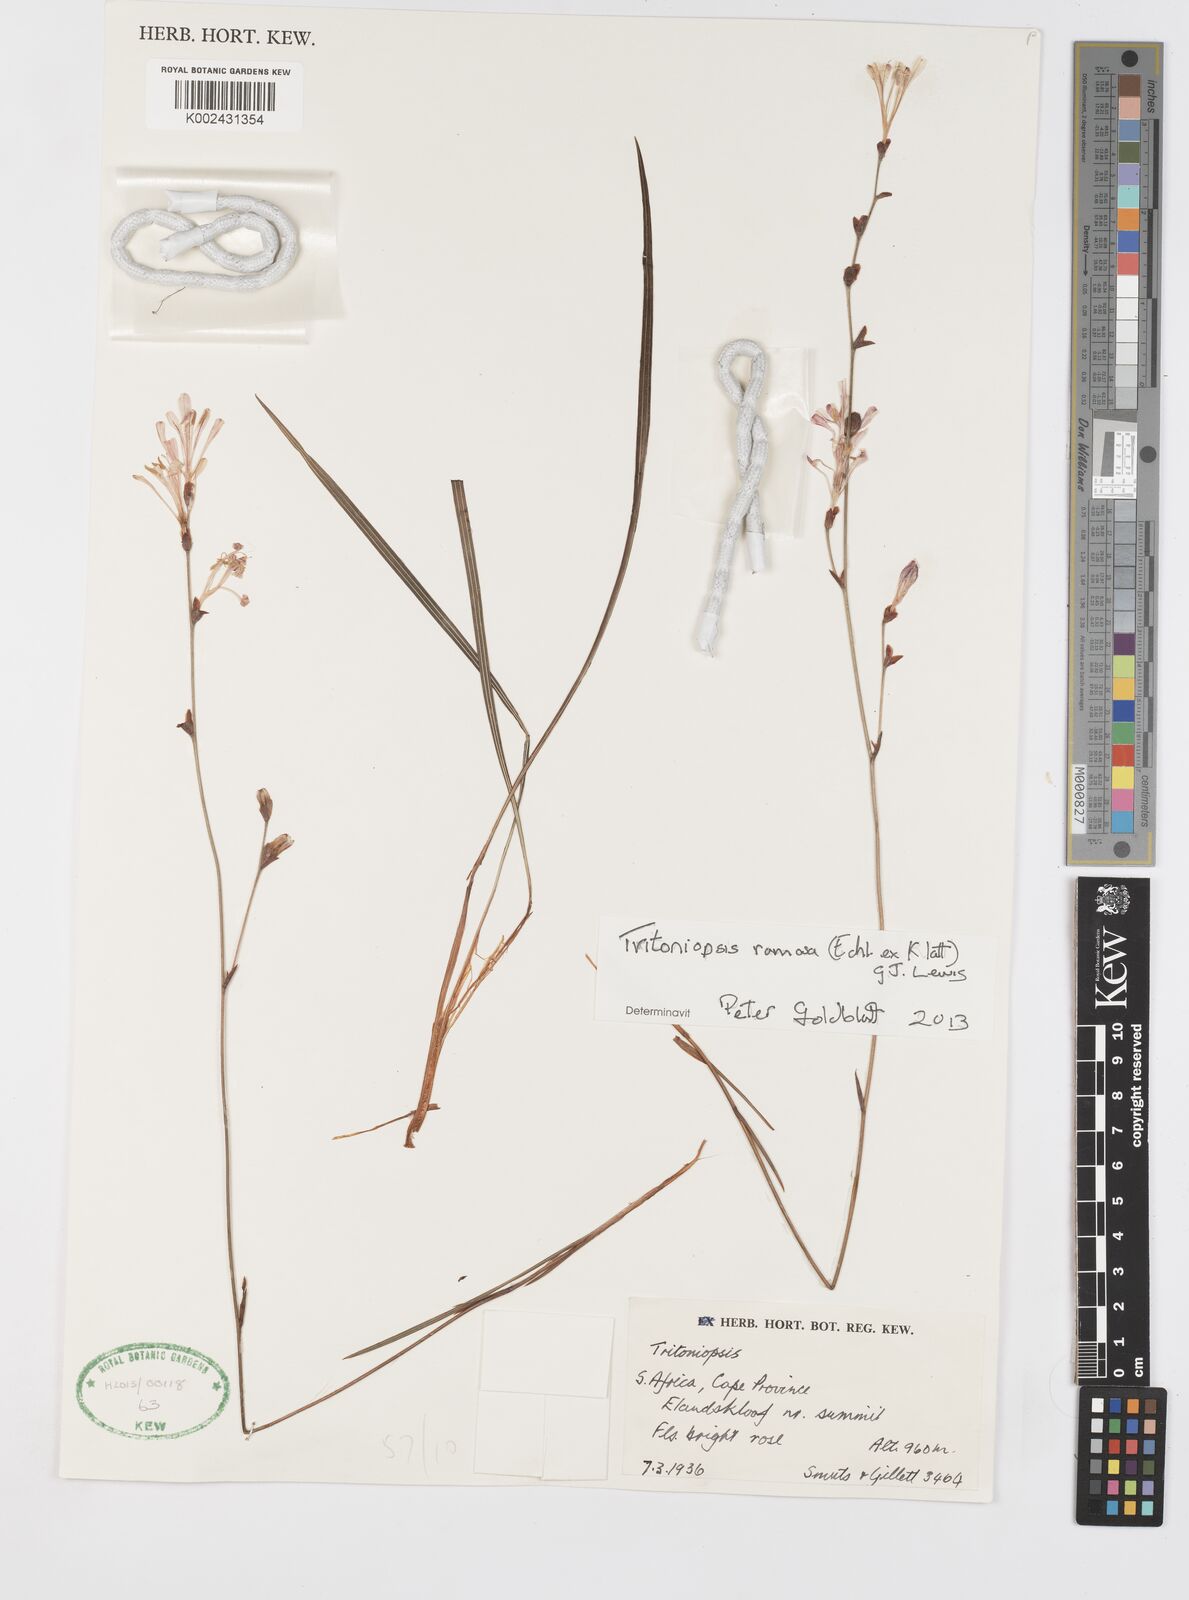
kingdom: Plantae
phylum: Tracheophyta
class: Liliopsida
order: Asparagales
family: Iridaceae
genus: Tritoniopsis
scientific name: Tritoniopsis ramosa
